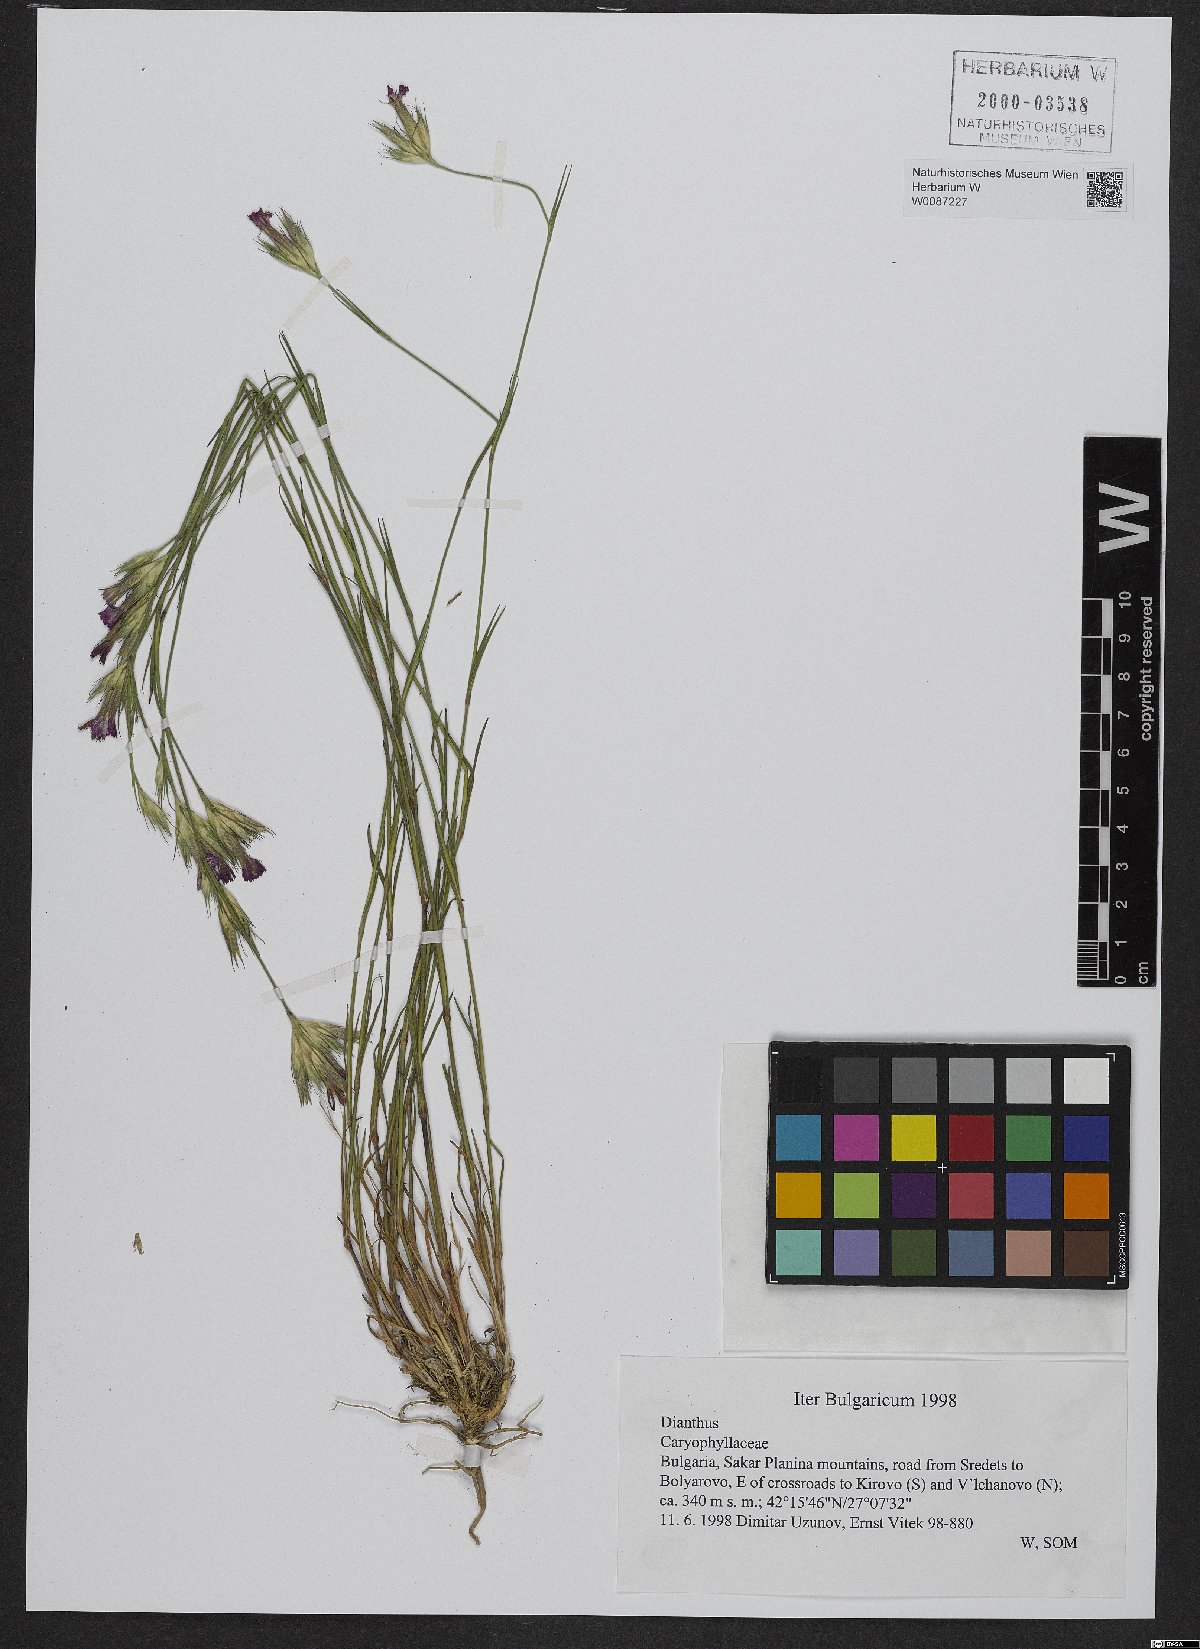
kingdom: Plantae
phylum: Tracheophyta
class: Magnoliopsida
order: Caryophyllales
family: Caryophyllaceae
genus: Dianthus
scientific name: Dianthus
